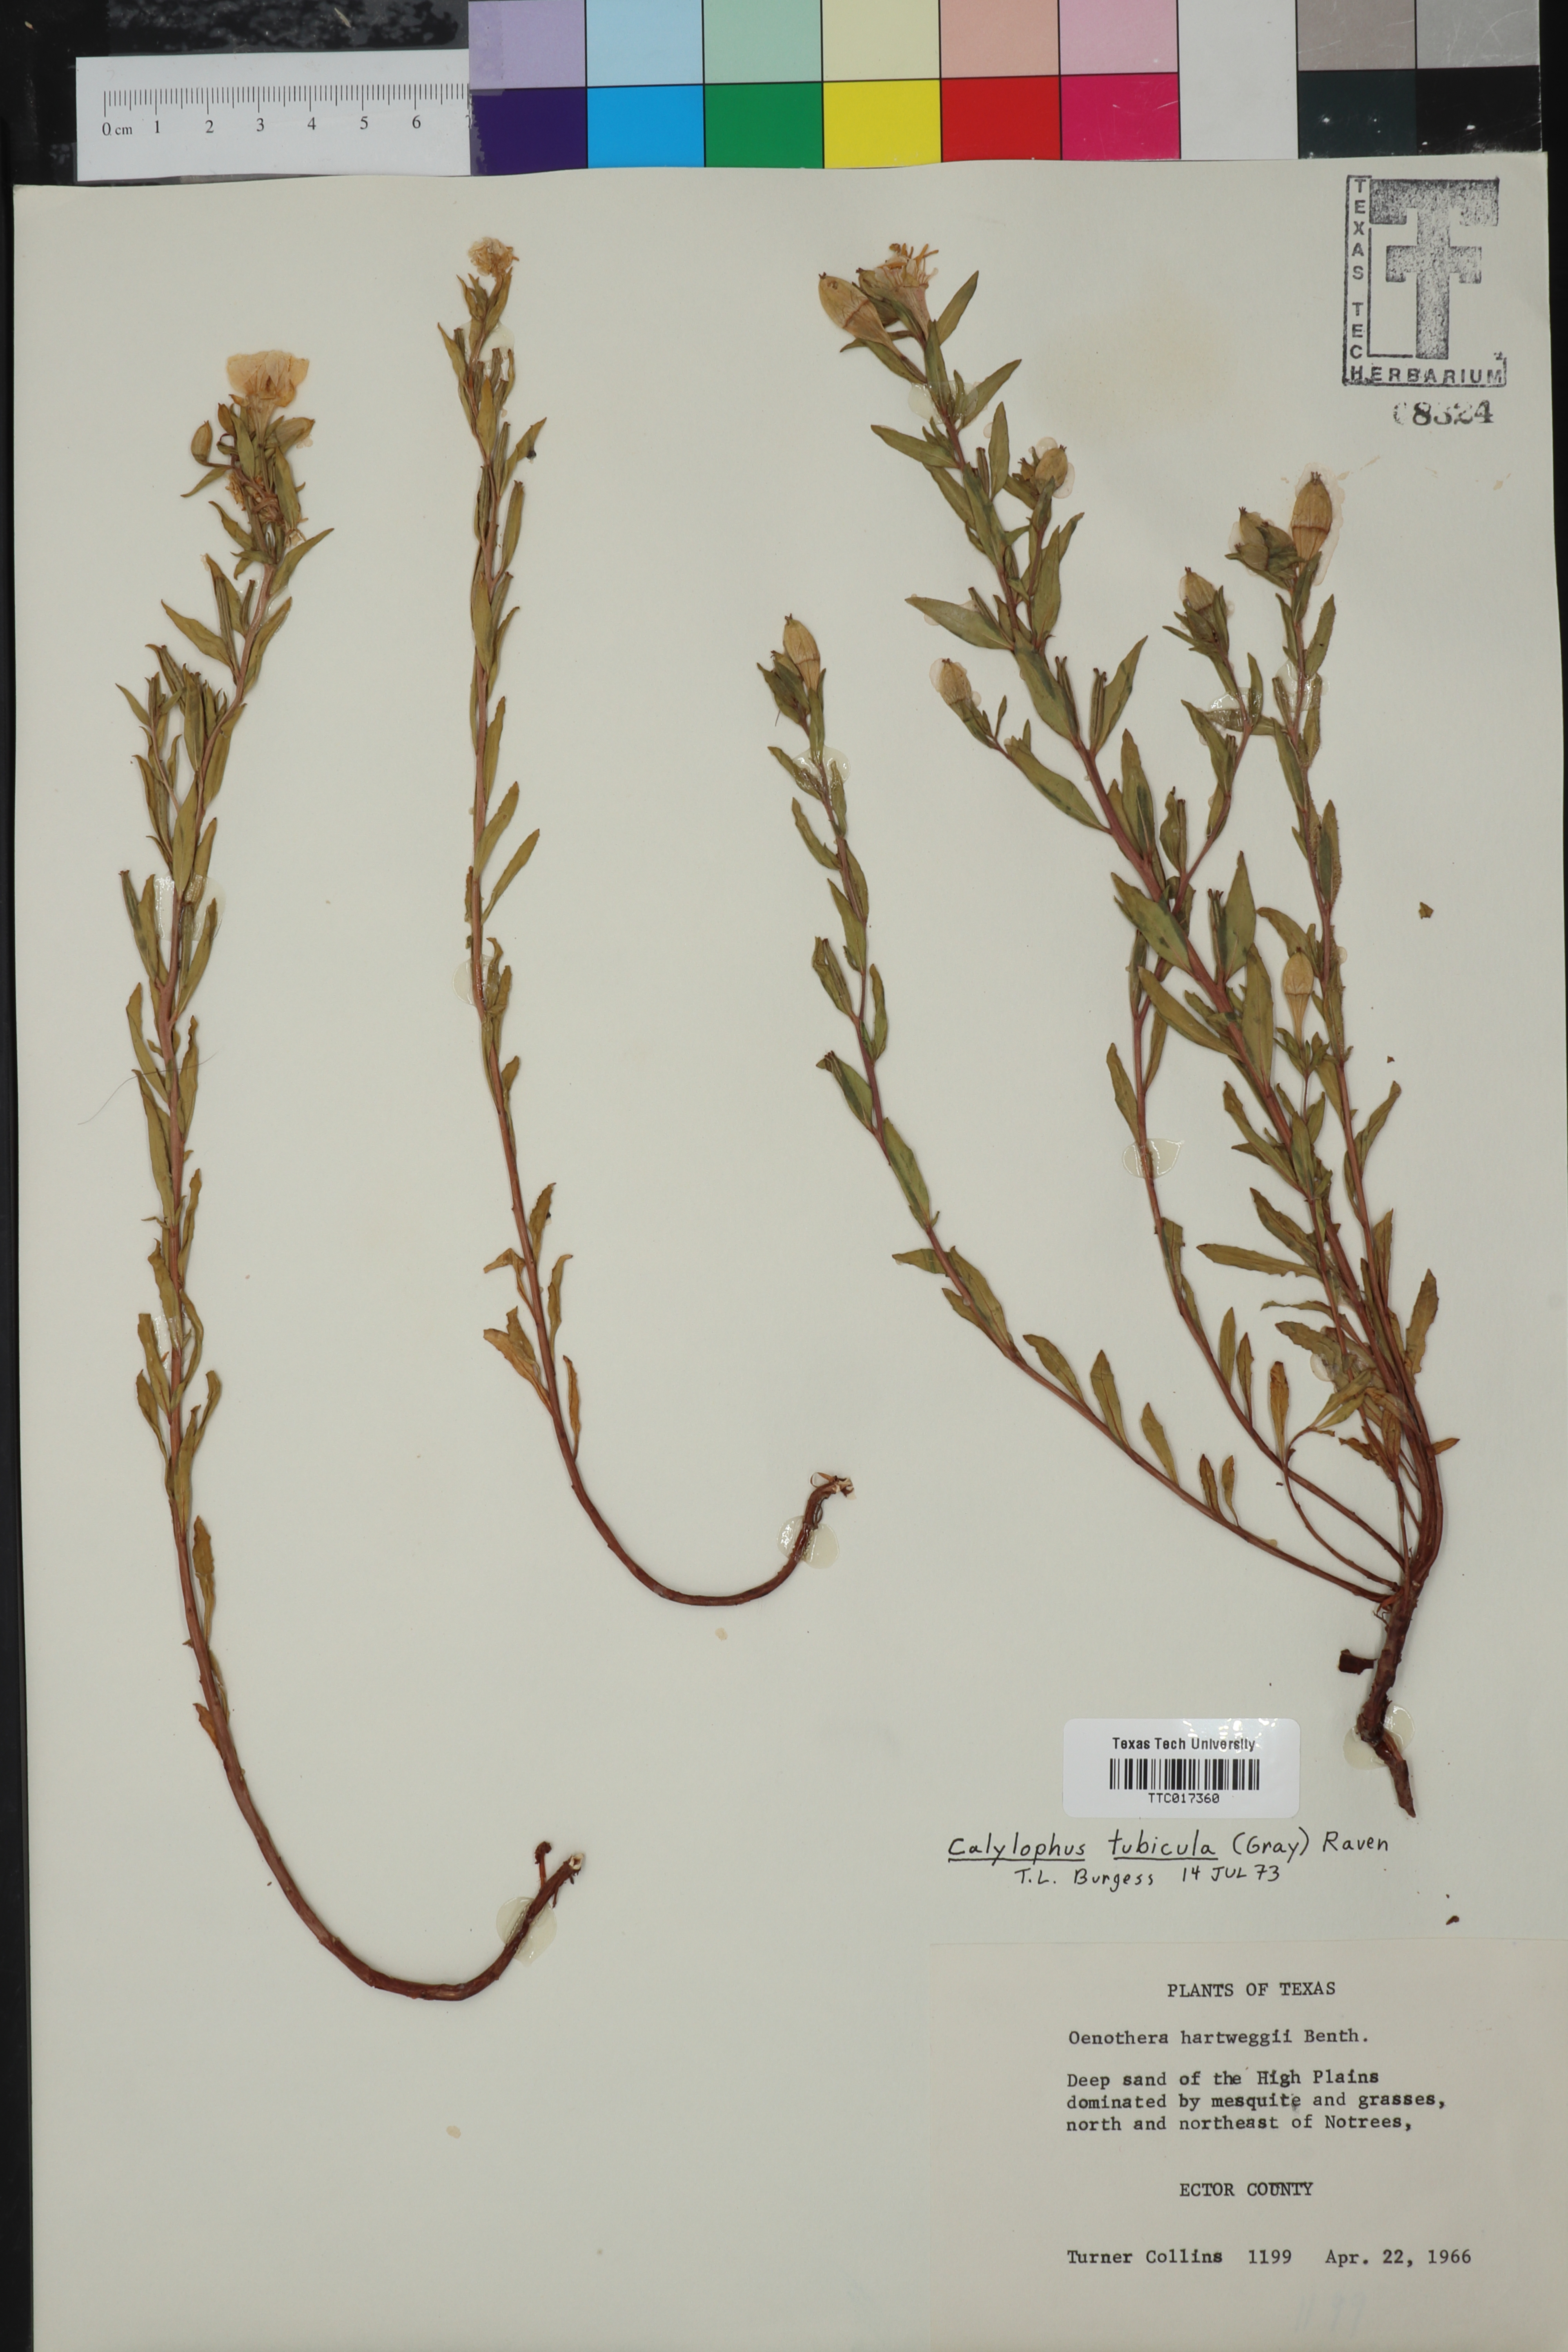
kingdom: Plantae
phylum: Tracheophyta
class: Magnoliopsida
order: Myrtales
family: Onagraceae
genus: Oenothera
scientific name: Oenothera tubicula
